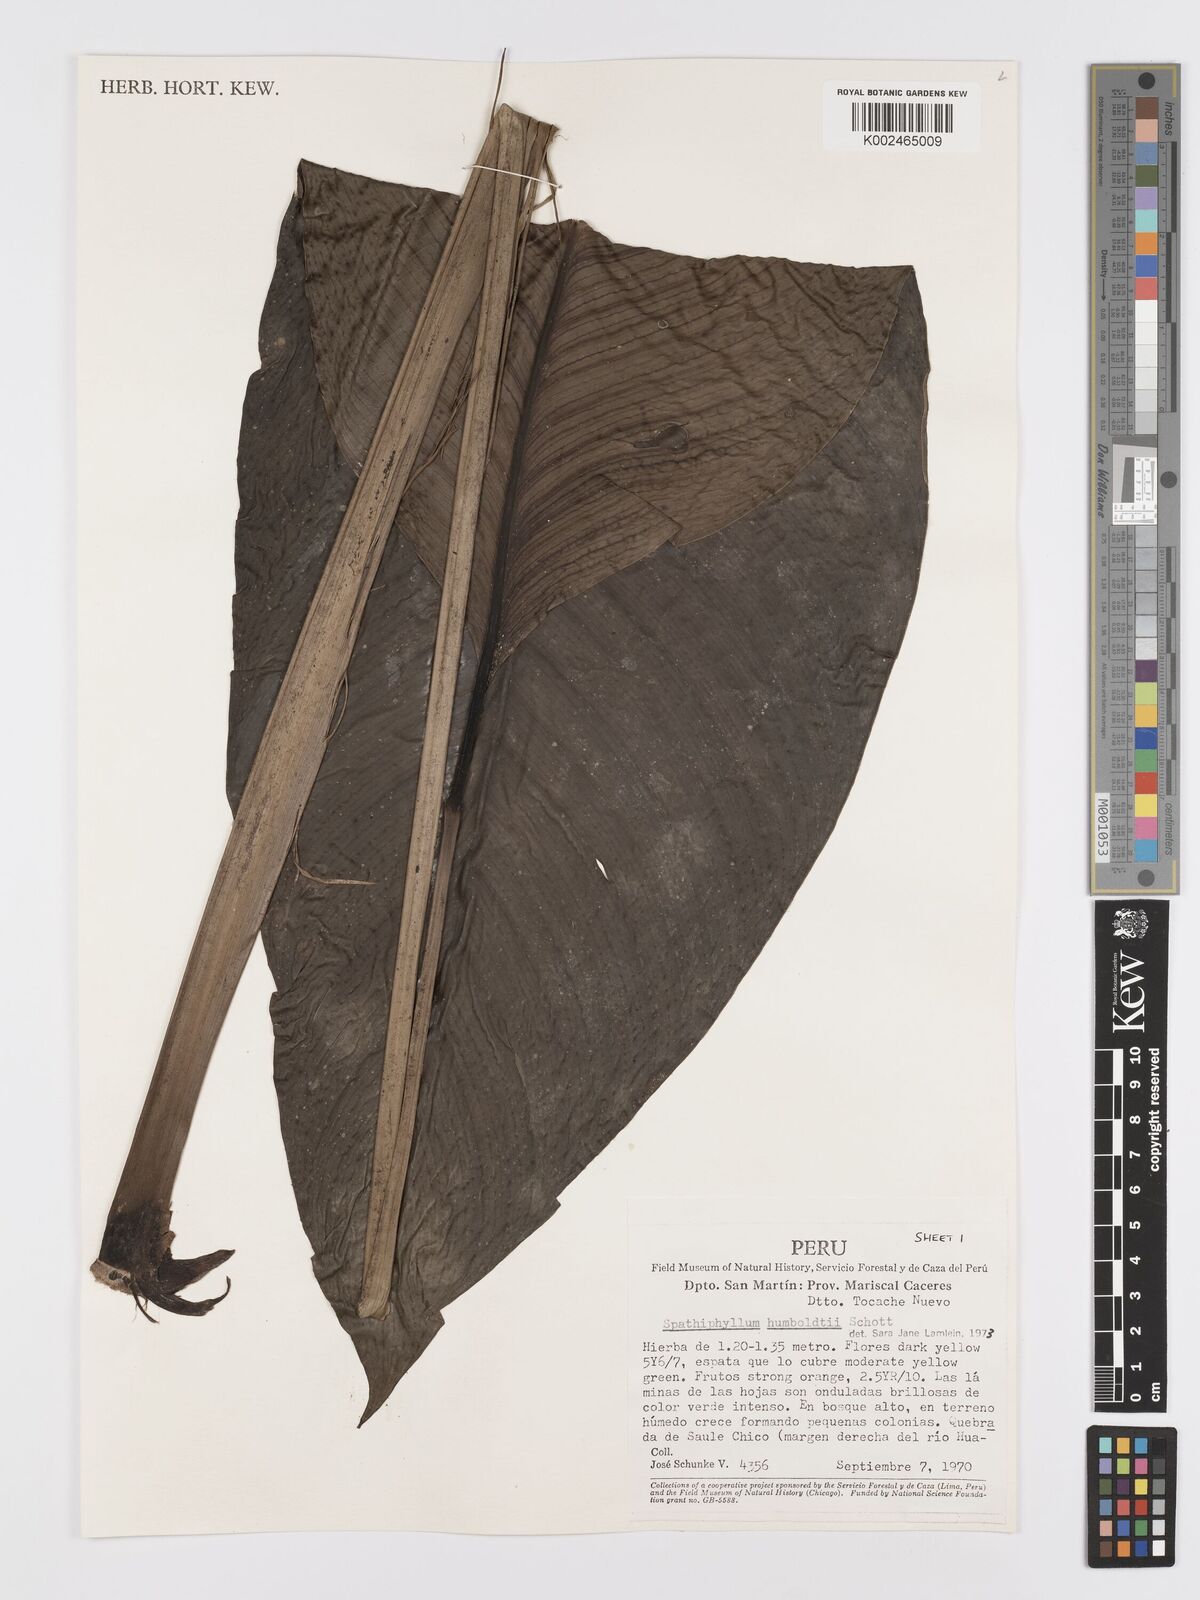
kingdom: Plantae
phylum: Tracheophyta
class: Liliopsida
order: Alismatales
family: Araceae
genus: Spathiphyllum
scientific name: Spathiphyllum humboldtii
